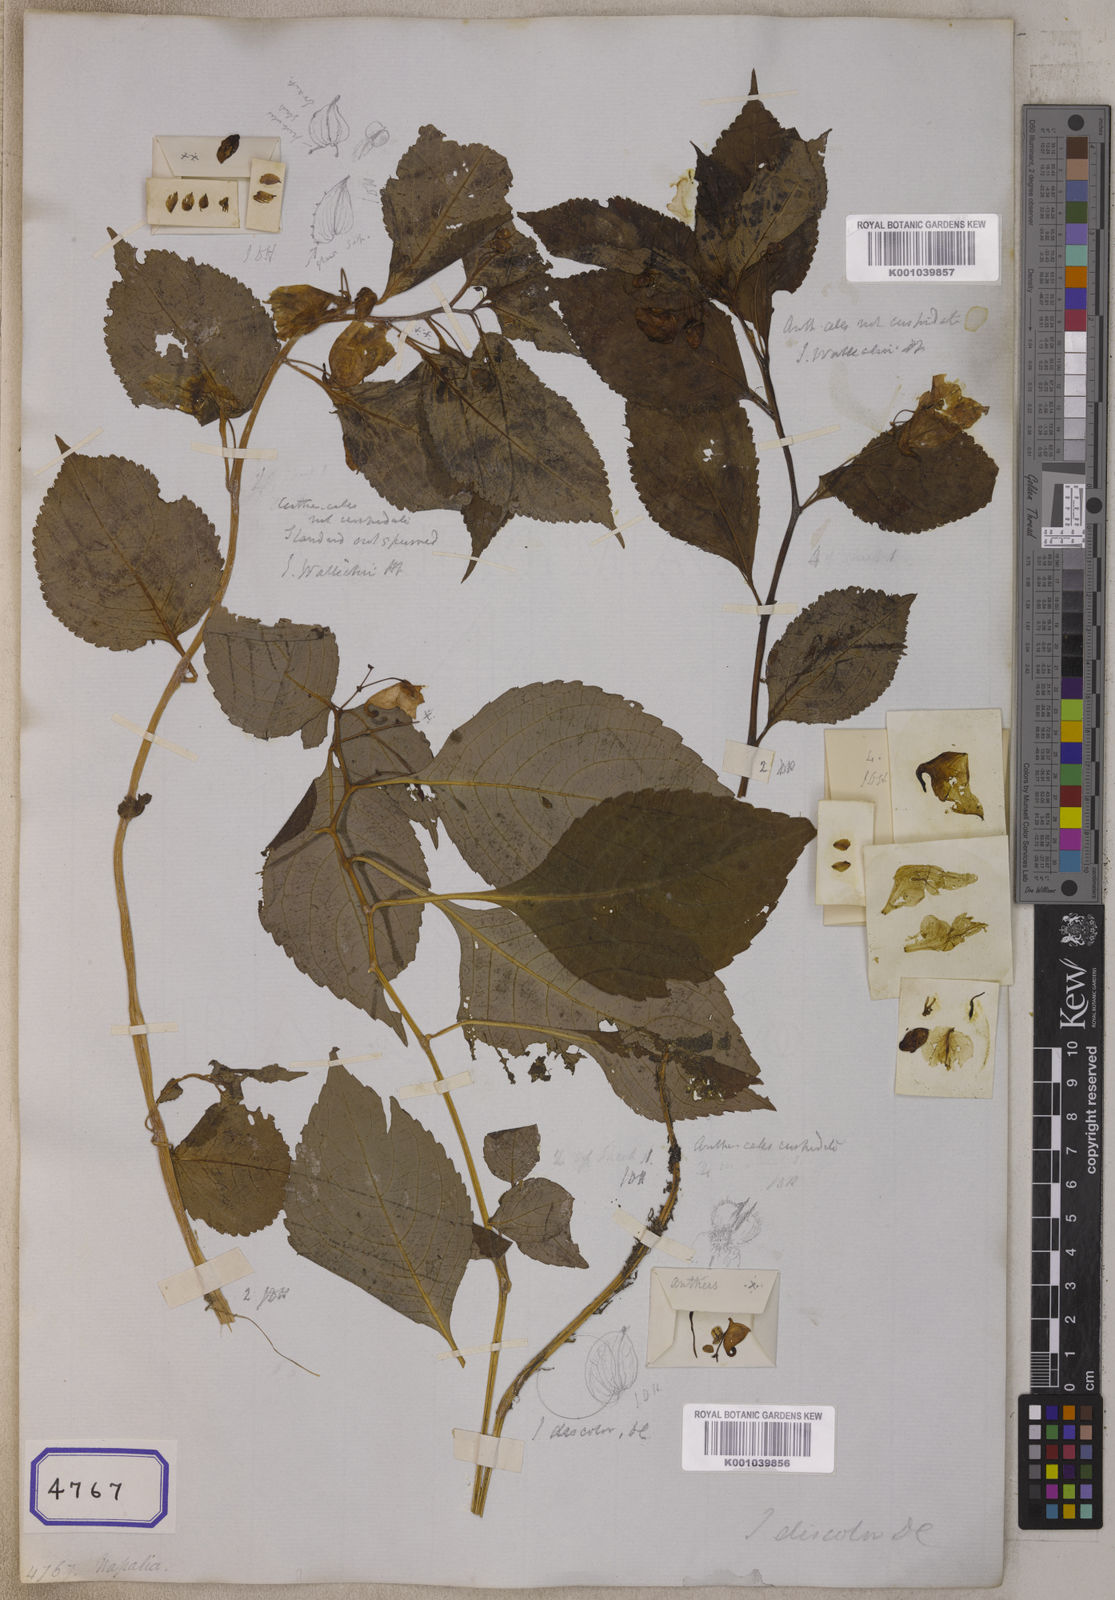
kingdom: Plantae
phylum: Tracheophyta
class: Magnoliopsida
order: Ericales
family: Balsaminaceae
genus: Impatiens
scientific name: Impatiens discolor
